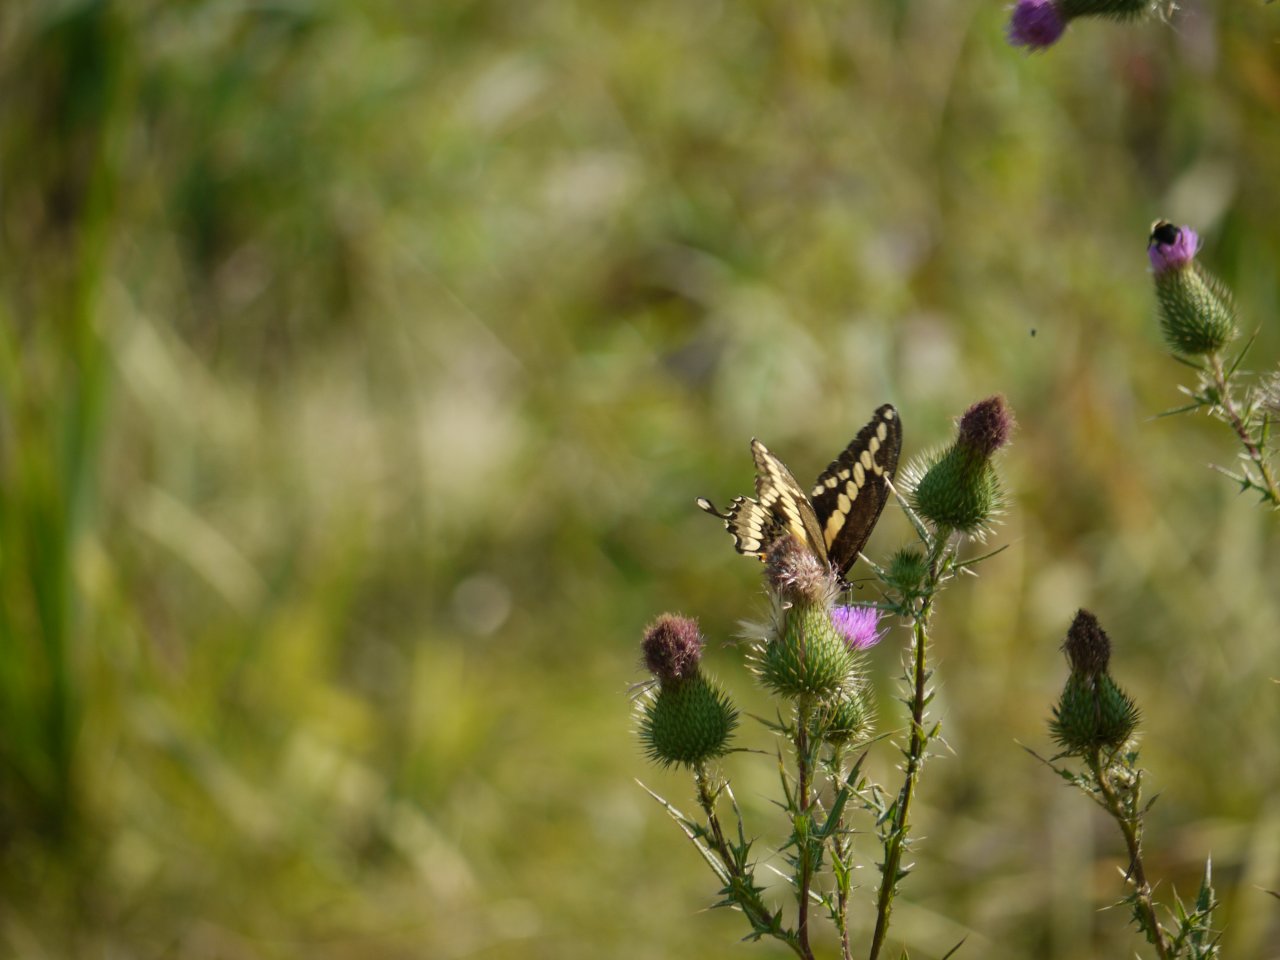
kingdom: Animalia
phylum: Arthropoda
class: Insecta
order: Lepidoptera
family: Papilionidae
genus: Papilio
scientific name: Papilio cresphontes
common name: Eastern Giant Swallowtail
